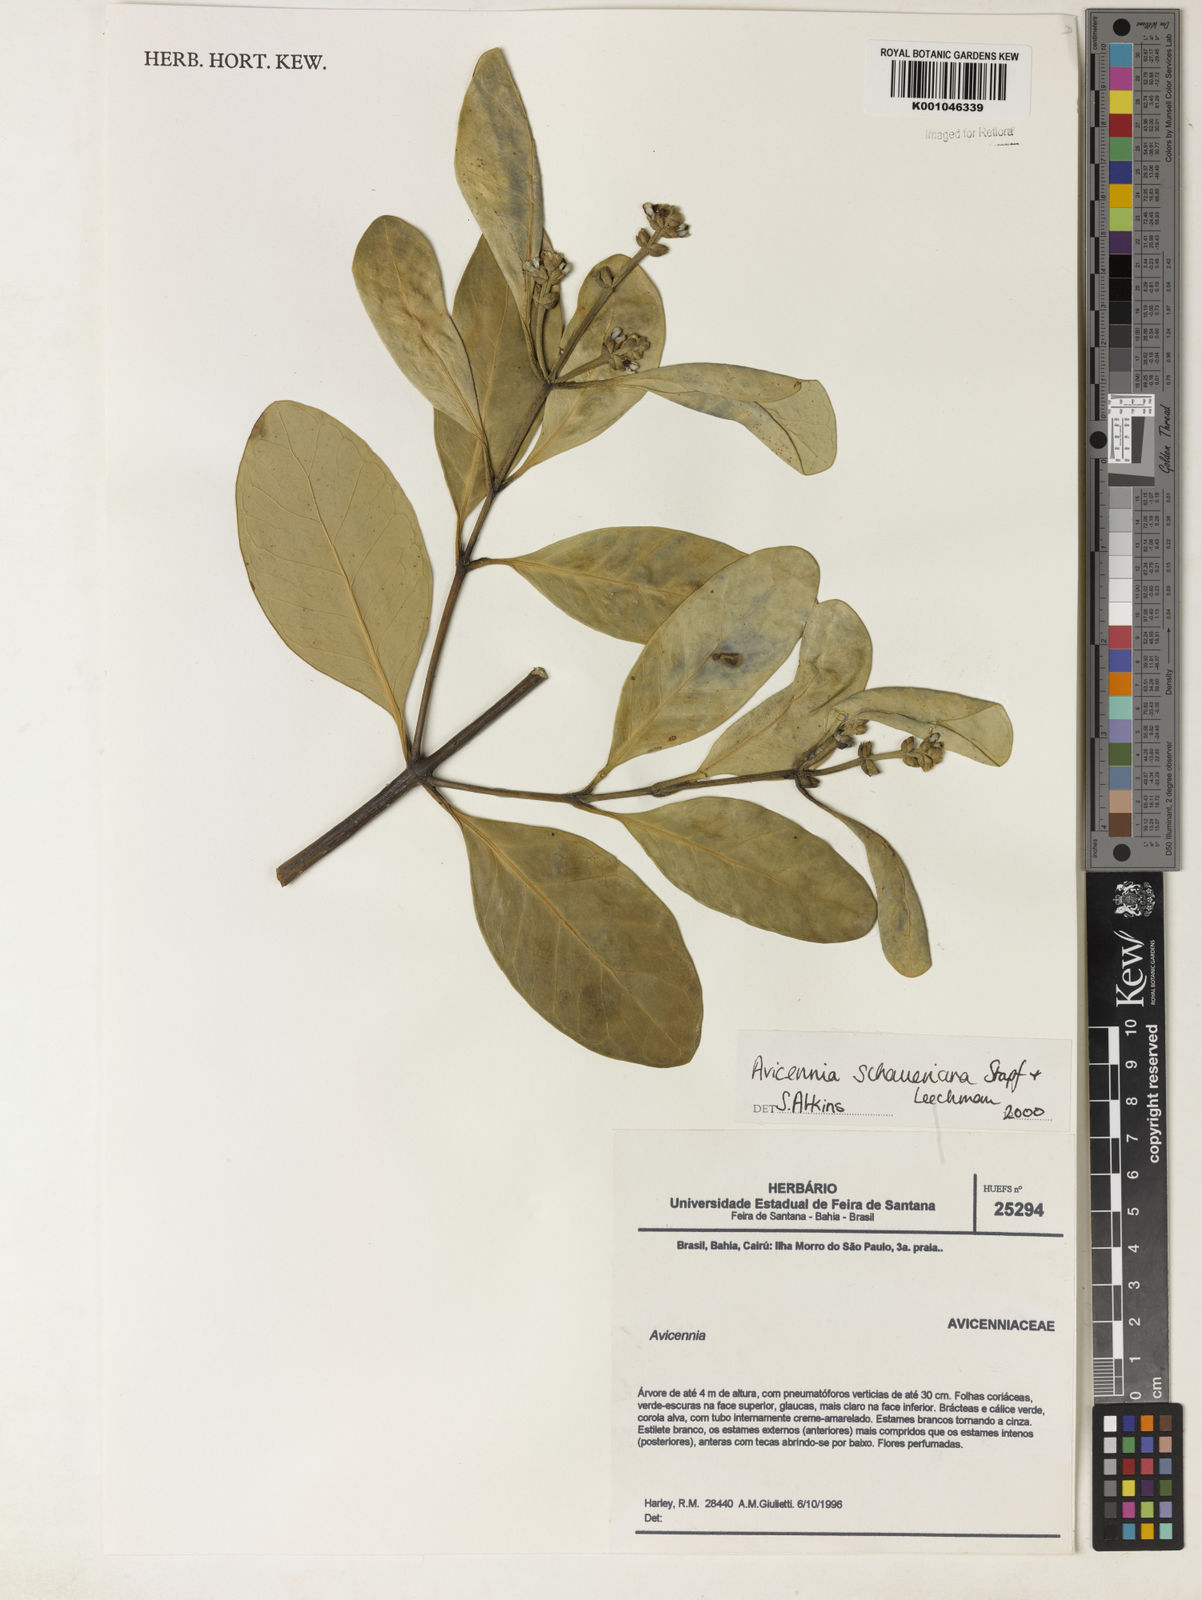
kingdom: Plantae
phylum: Tracheophyta
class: Magnoliopsida
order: Lamiales
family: Acanthaceae
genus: Avicennia
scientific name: Avicennia schaueriana
